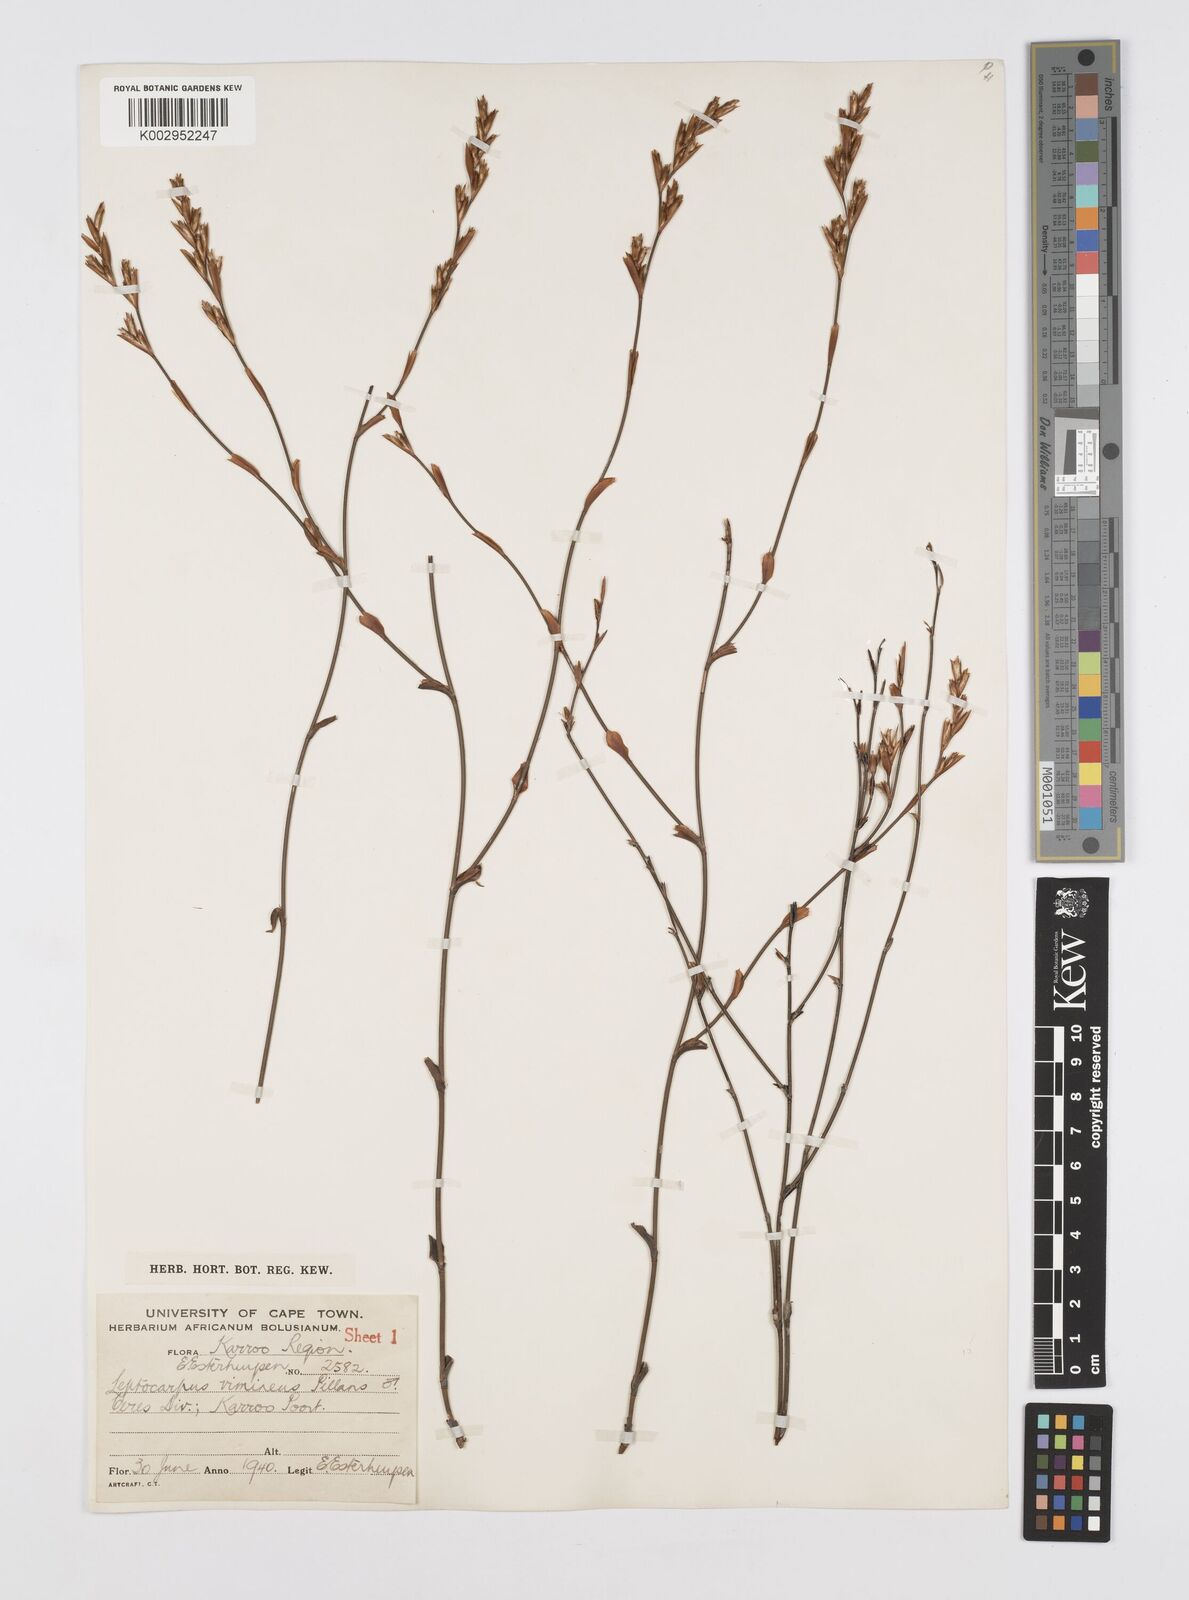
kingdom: Plantae
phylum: Tracheophyta
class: Liliopsida
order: Poales
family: Restionaceae
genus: Restio
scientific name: Restio vimineus
